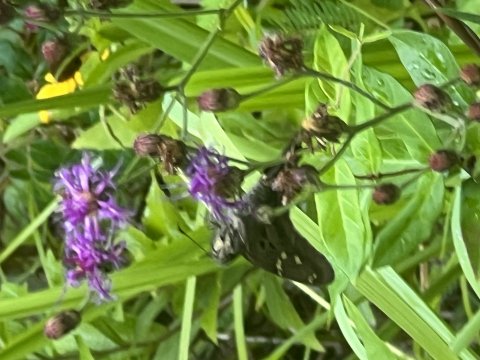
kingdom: Animalia
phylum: Arthropoda
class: Insecta
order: Lepidoptera
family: Hesperiidae
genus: Urbanus
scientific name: Urbanus proteus
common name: Long-tailed Skipper
